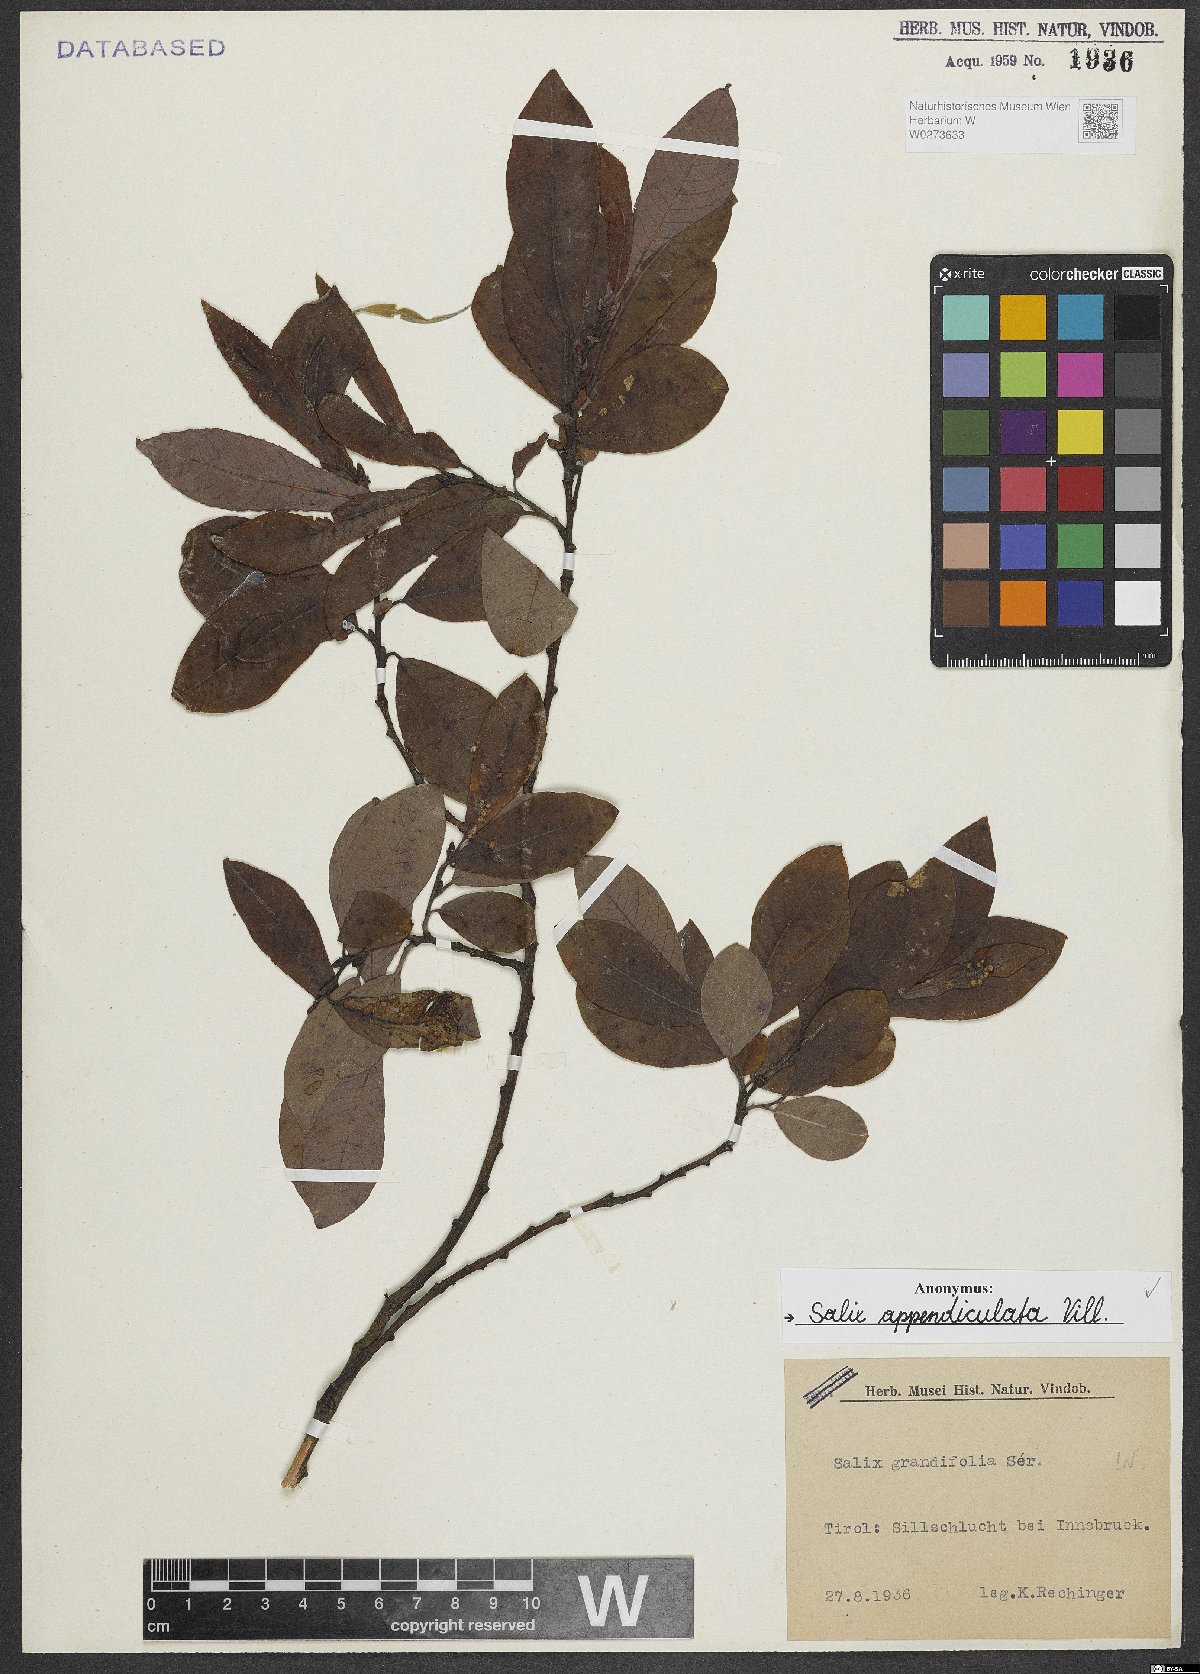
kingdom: Plantae
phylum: Tracheophyta
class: Magnoliopsida
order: Malpighiales
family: Salicaceae
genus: Salix
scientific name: Salix appendiculata
